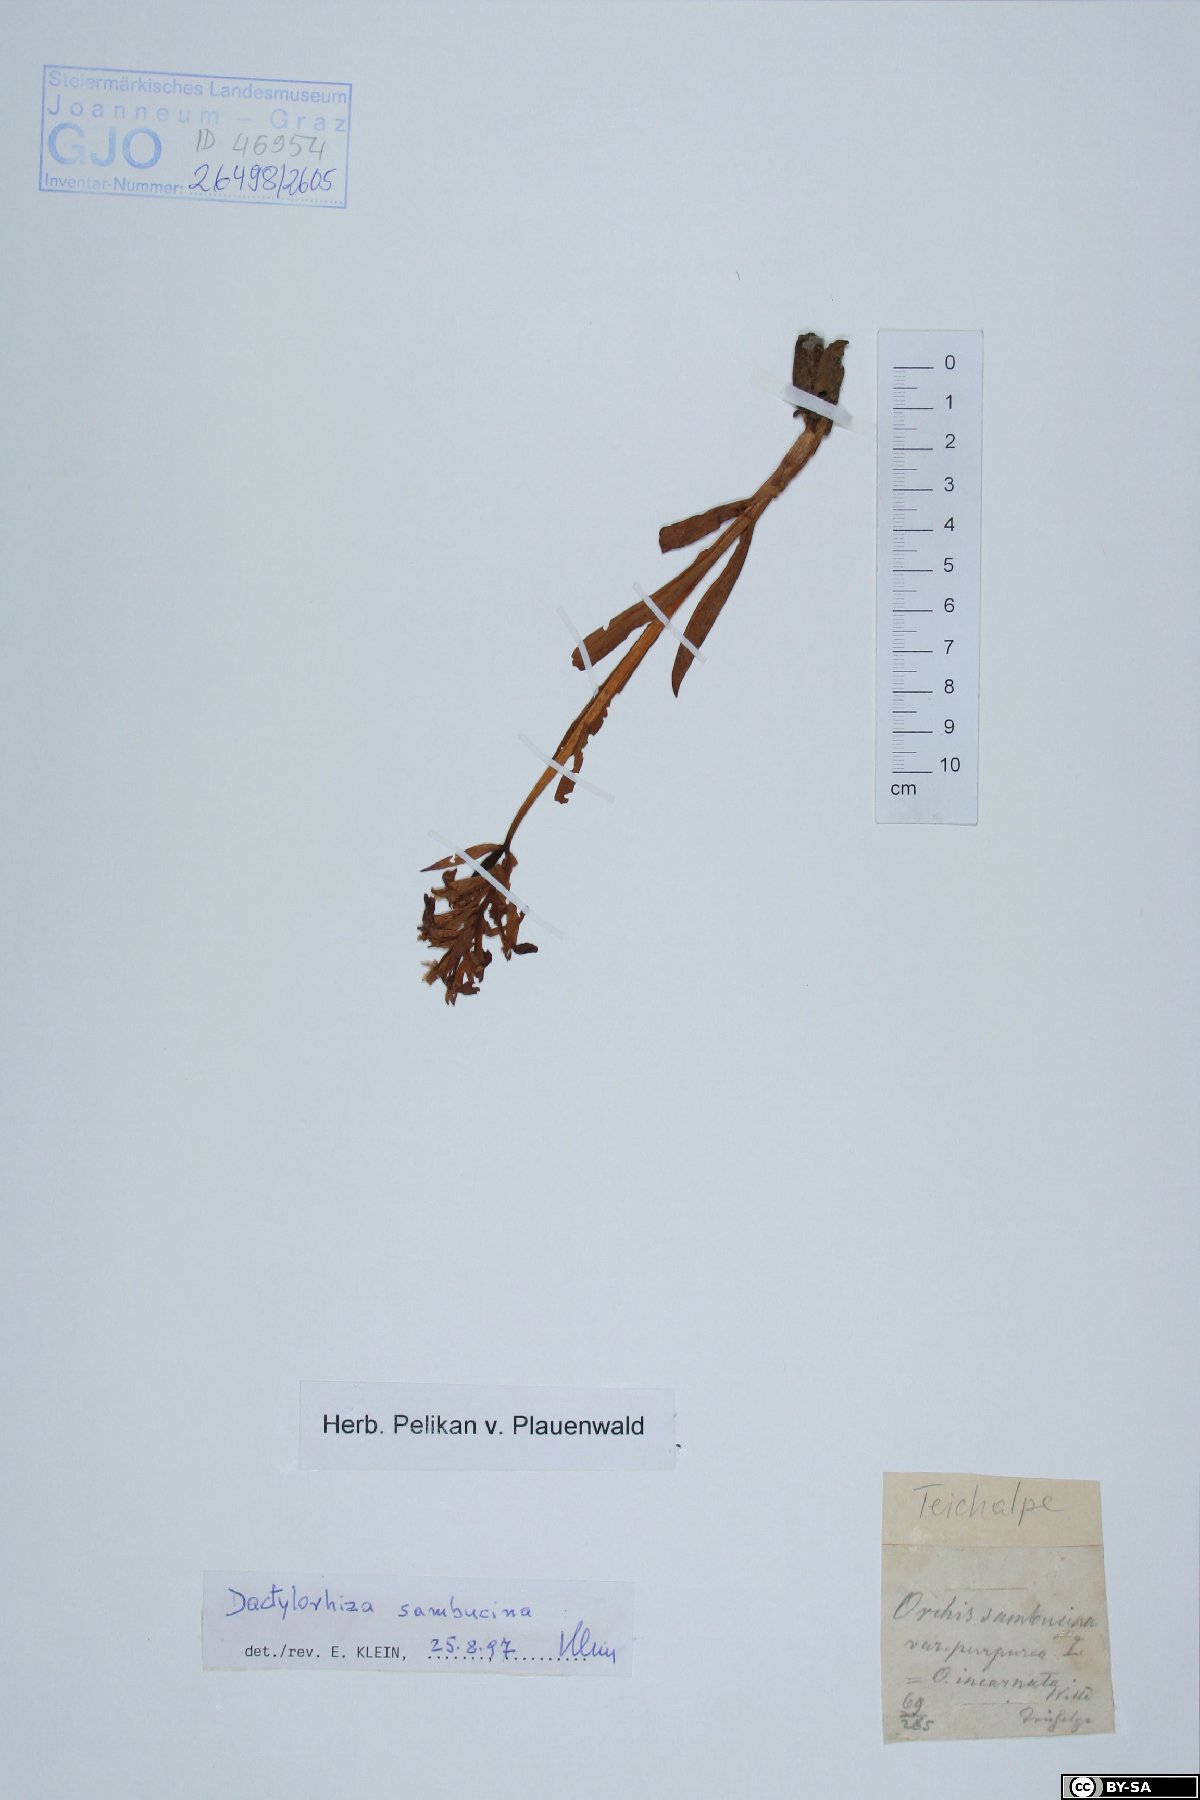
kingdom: Plantae
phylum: Tracheophyta
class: Liliopsida
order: Asparagales
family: Orchidaceae
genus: Dactylorhiza
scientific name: Dactylorhiza sambucina
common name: Elder-flowered orchid
